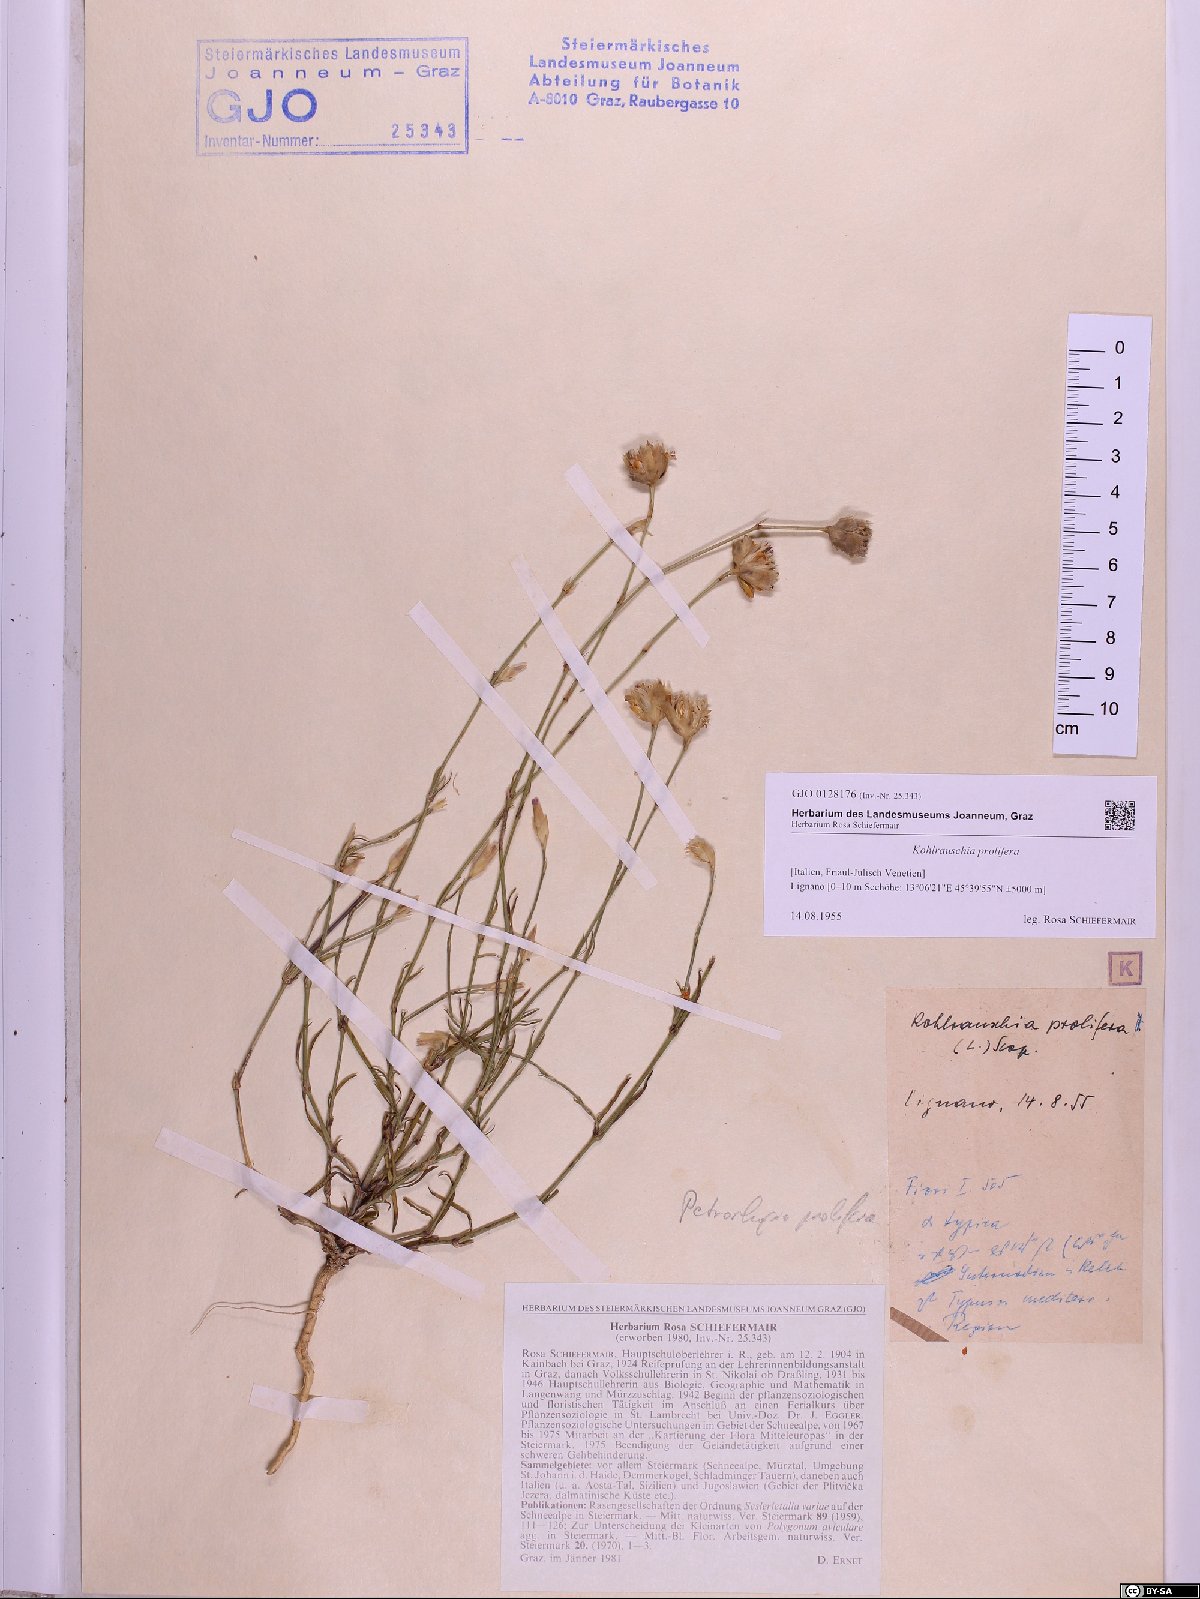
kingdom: Plantae
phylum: Tracheophyta
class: Magnoliopsida
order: Caryophyllales
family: Caryophyllaceae
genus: Petrorhagia
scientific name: Petrorhagia prolifera
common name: Proliferous pink
